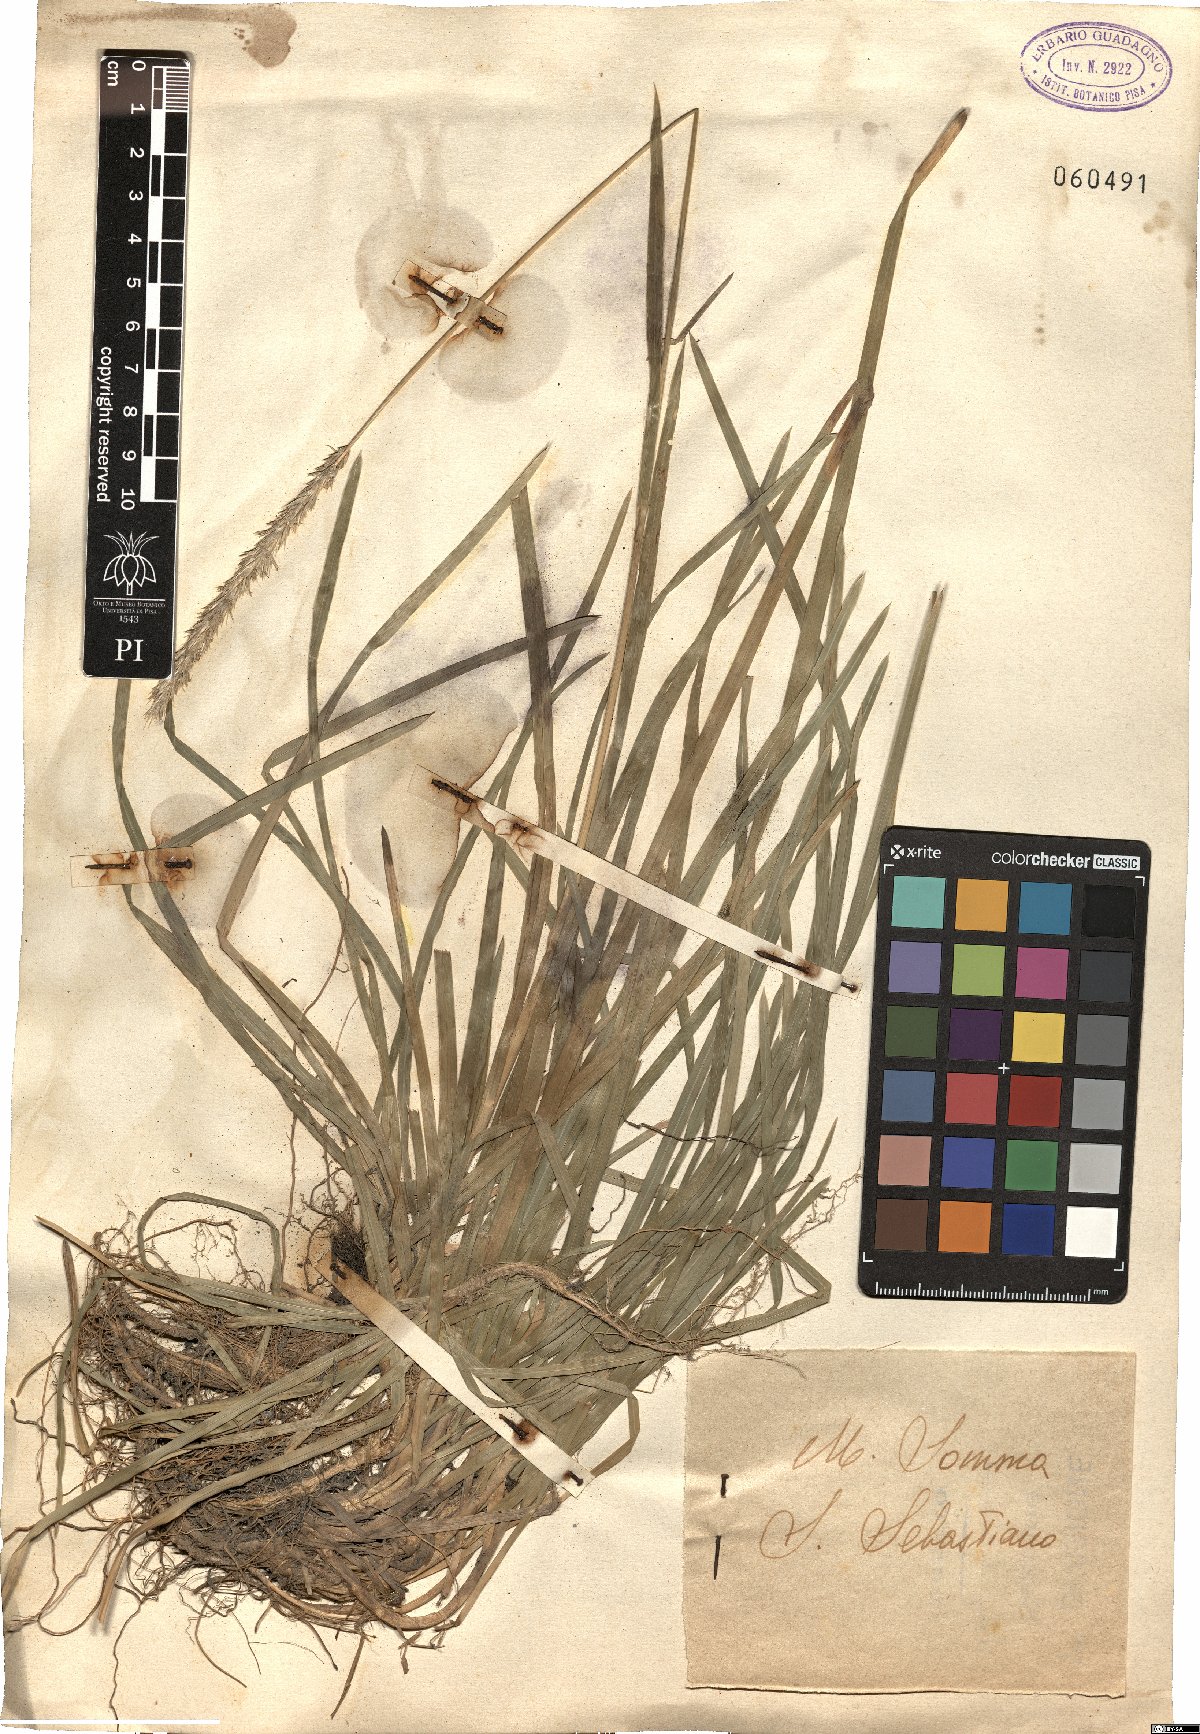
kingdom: Plantae
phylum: Tracheophyta
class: Liliopsida
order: Poales
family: Poaceae
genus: Sesleria
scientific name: Sesleria autumnalis
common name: Autumn moor grass
